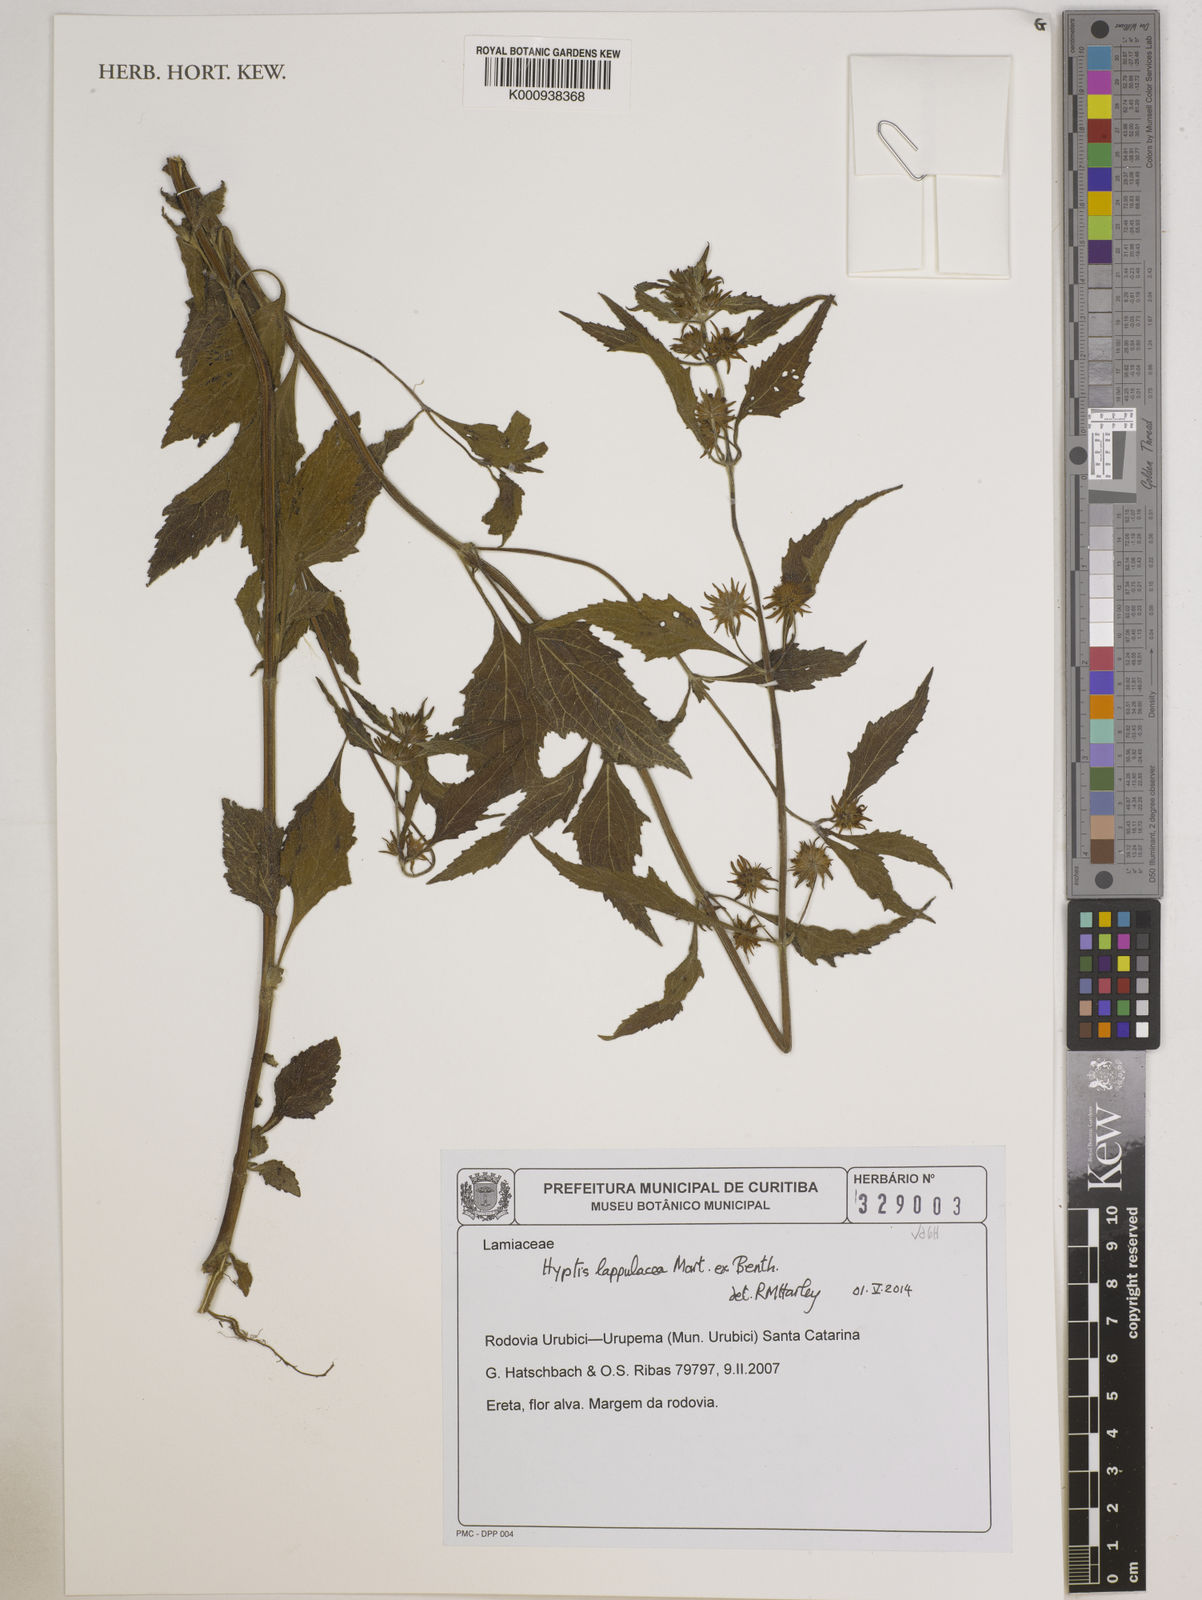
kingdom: Plantae
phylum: Tracheophyta
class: Magnoliopsida
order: Lamiales
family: Lamiaceae
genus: Hyptis
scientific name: Hyptis lappulacea
